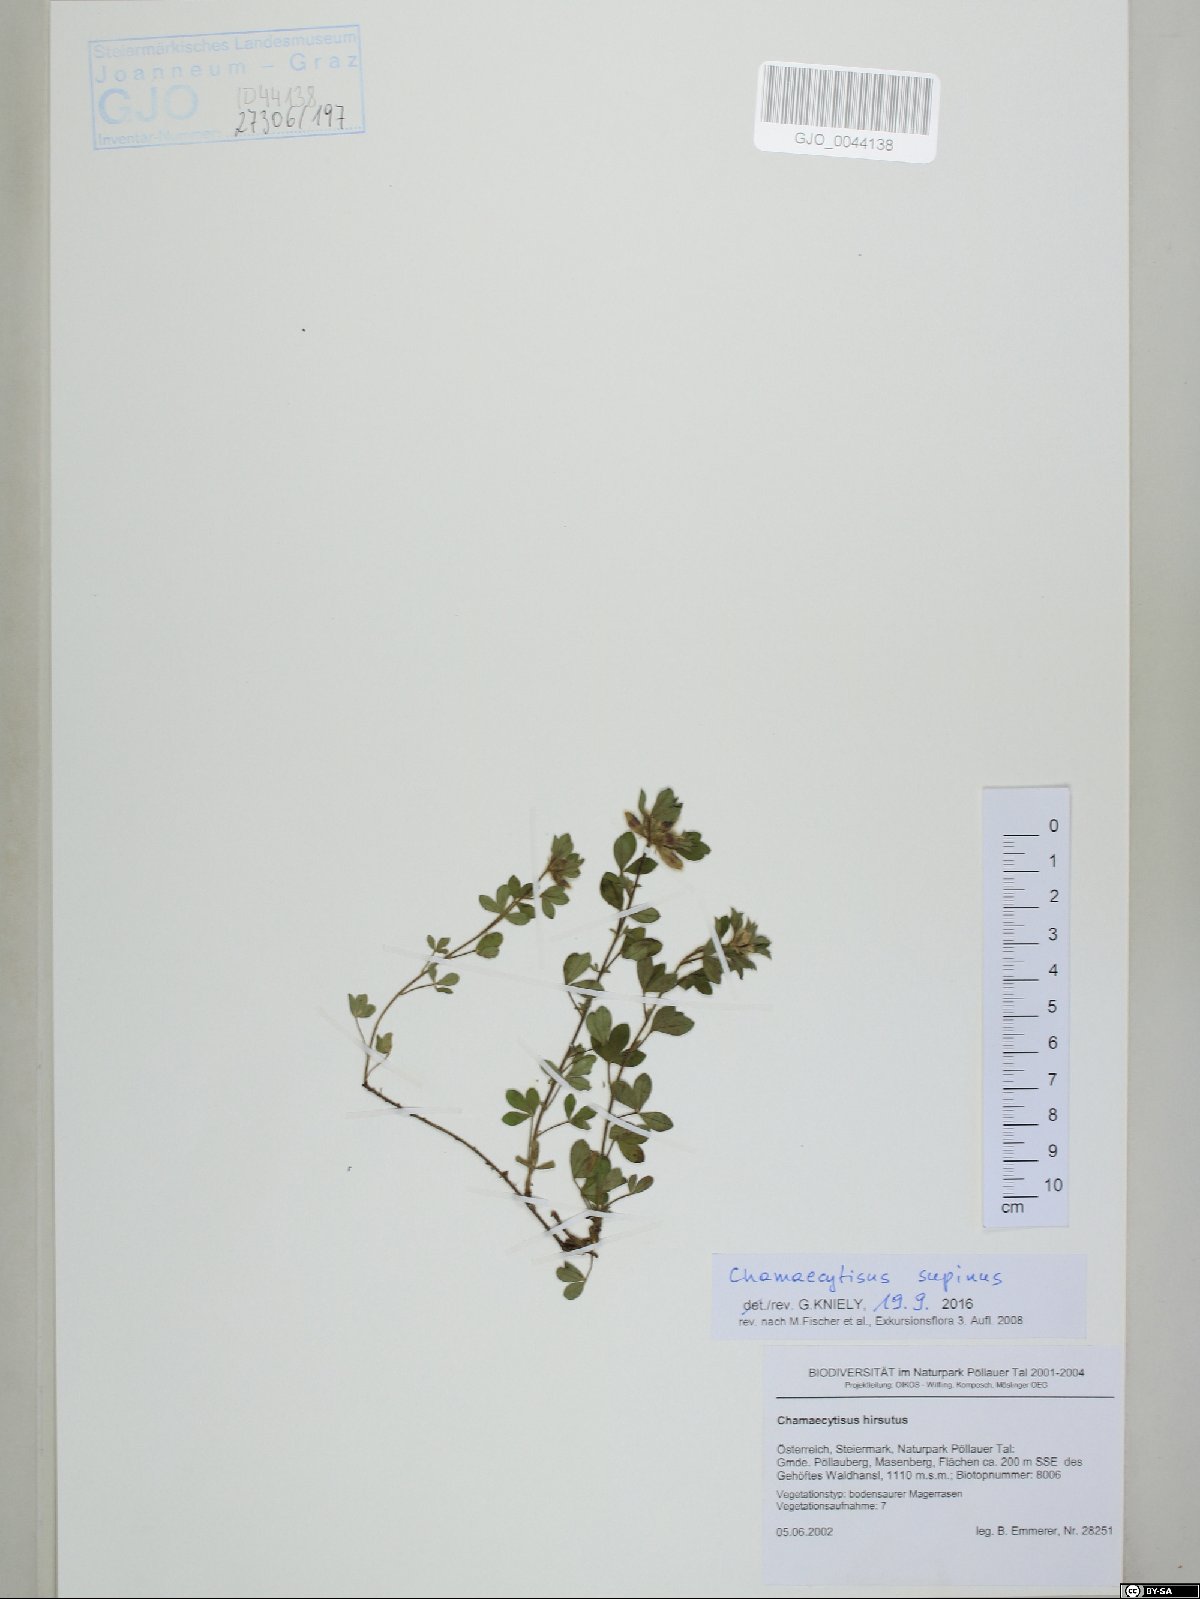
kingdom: Plantae
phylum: Tracheophyta
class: Magnoliopsida
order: Fabales
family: Fabaceae
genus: Chamaecytisus
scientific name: Chamaecytisus supinus
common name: Clustered broom
